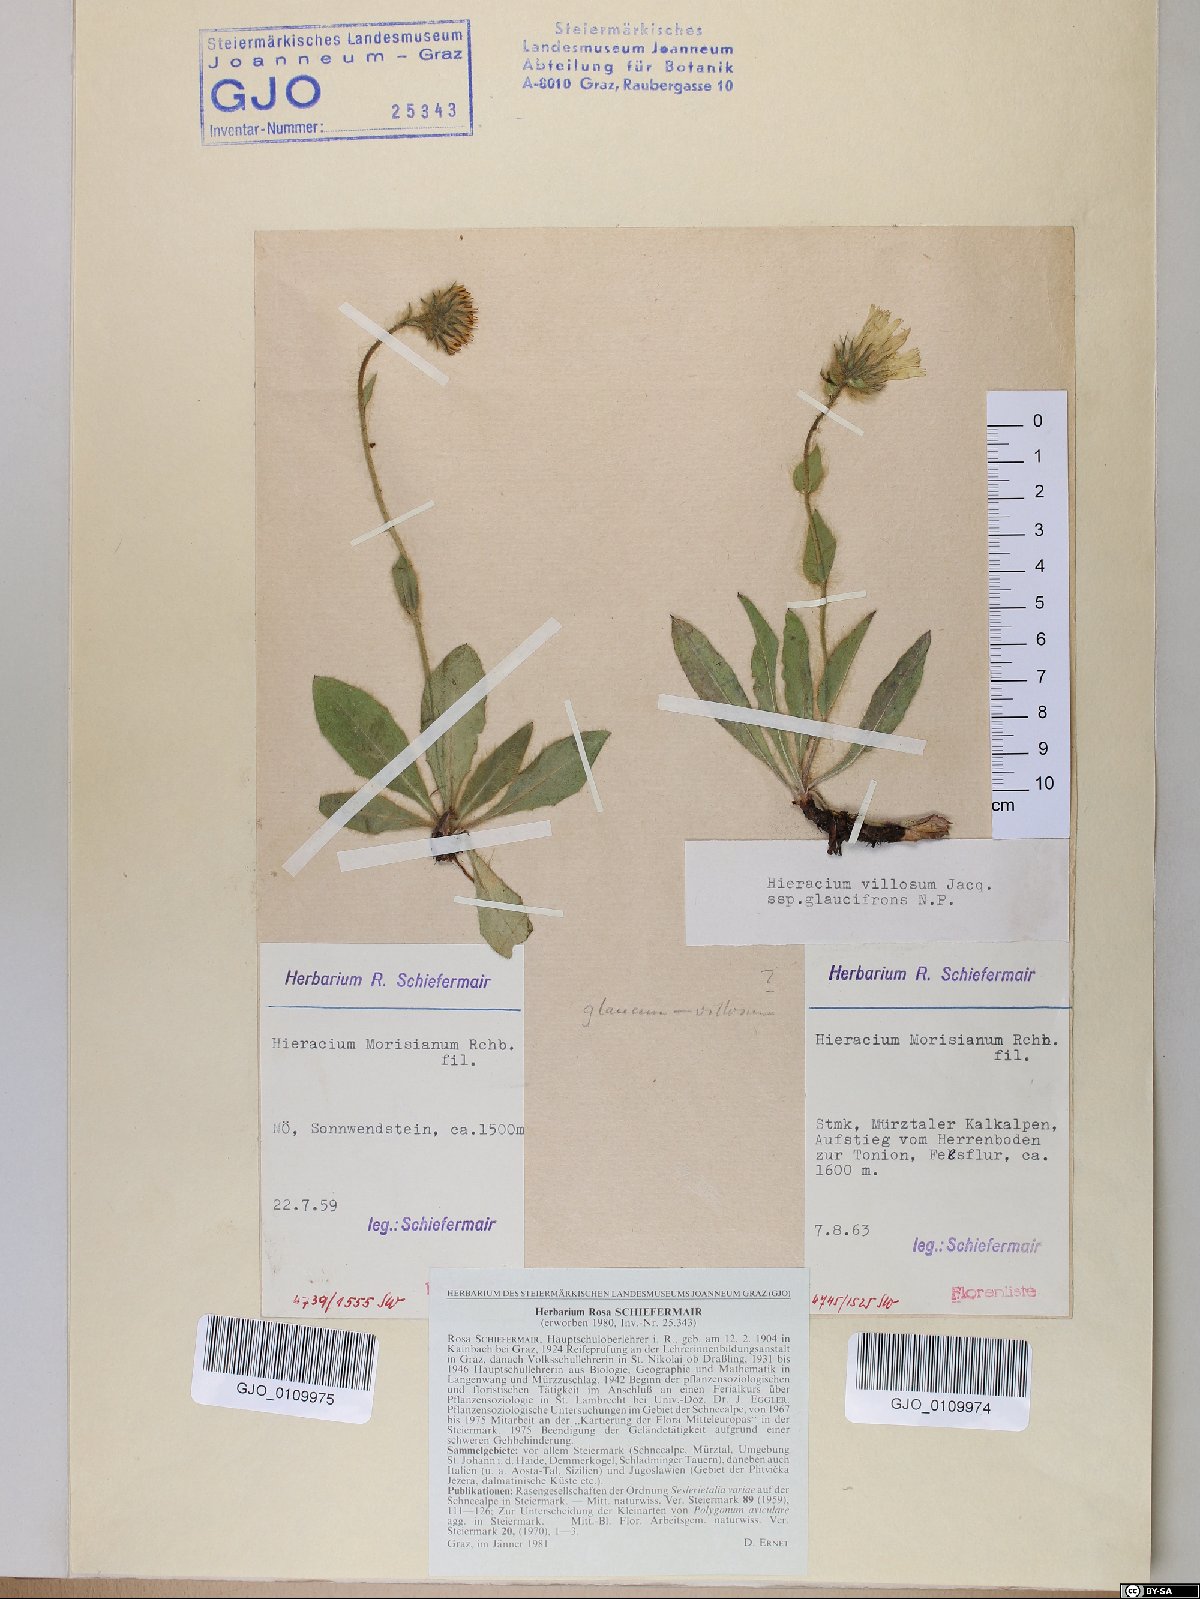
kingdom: Plantae
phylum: Tracheophyta
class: Magnoliopsida
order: Asterales
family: Asteraceae
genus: Hieracium
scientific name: Hieracium pilosum
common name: Fimbriate-pitted hawkweed
